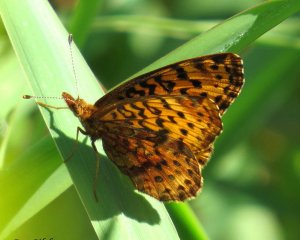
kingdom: Animalia
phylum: Arthropoda
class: Insecta
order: Lepidoptera
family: Nymphalidae
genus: Clossiana
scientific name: Clossiana toddi
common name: Meadow Fritillary
